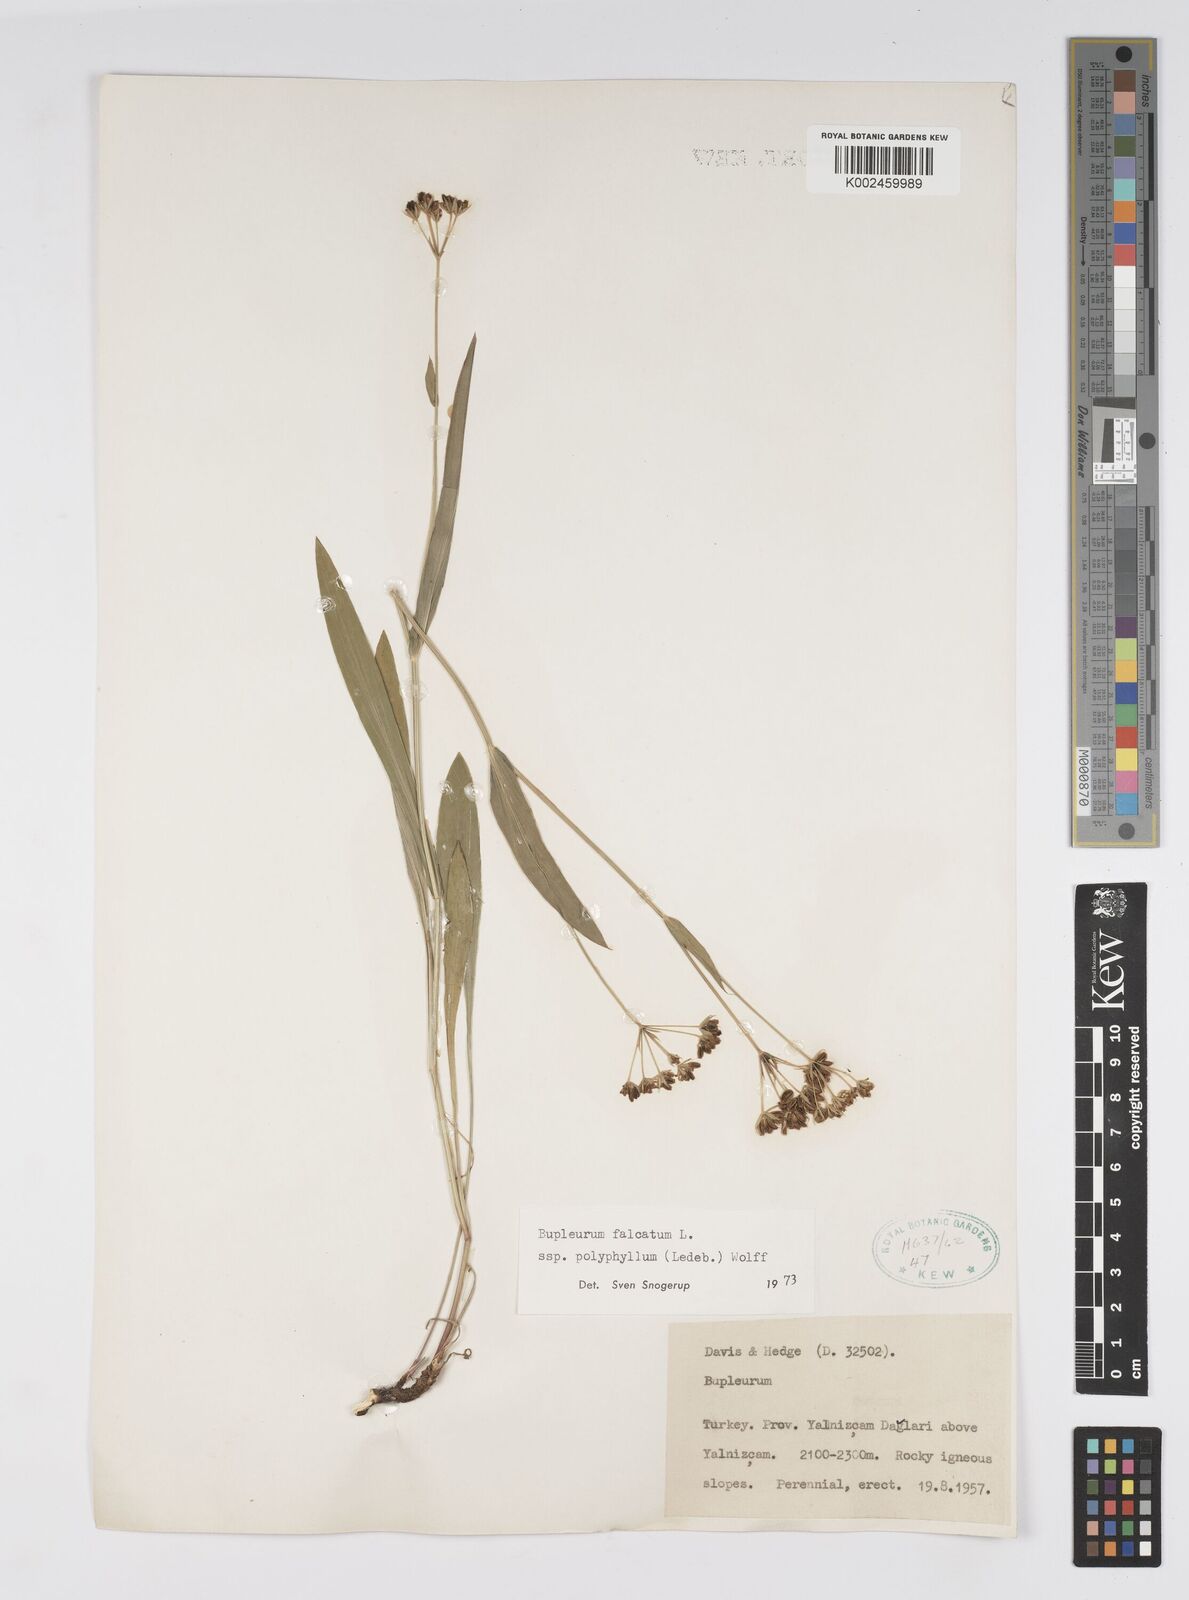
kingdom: Plantae
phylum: Tracheophyta
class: Magnoliopsida
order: Apiales
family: Apiaceae
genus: Bupleurum
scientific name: Bupleurum falcatum
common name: Sickle-leaved hare's-ear
